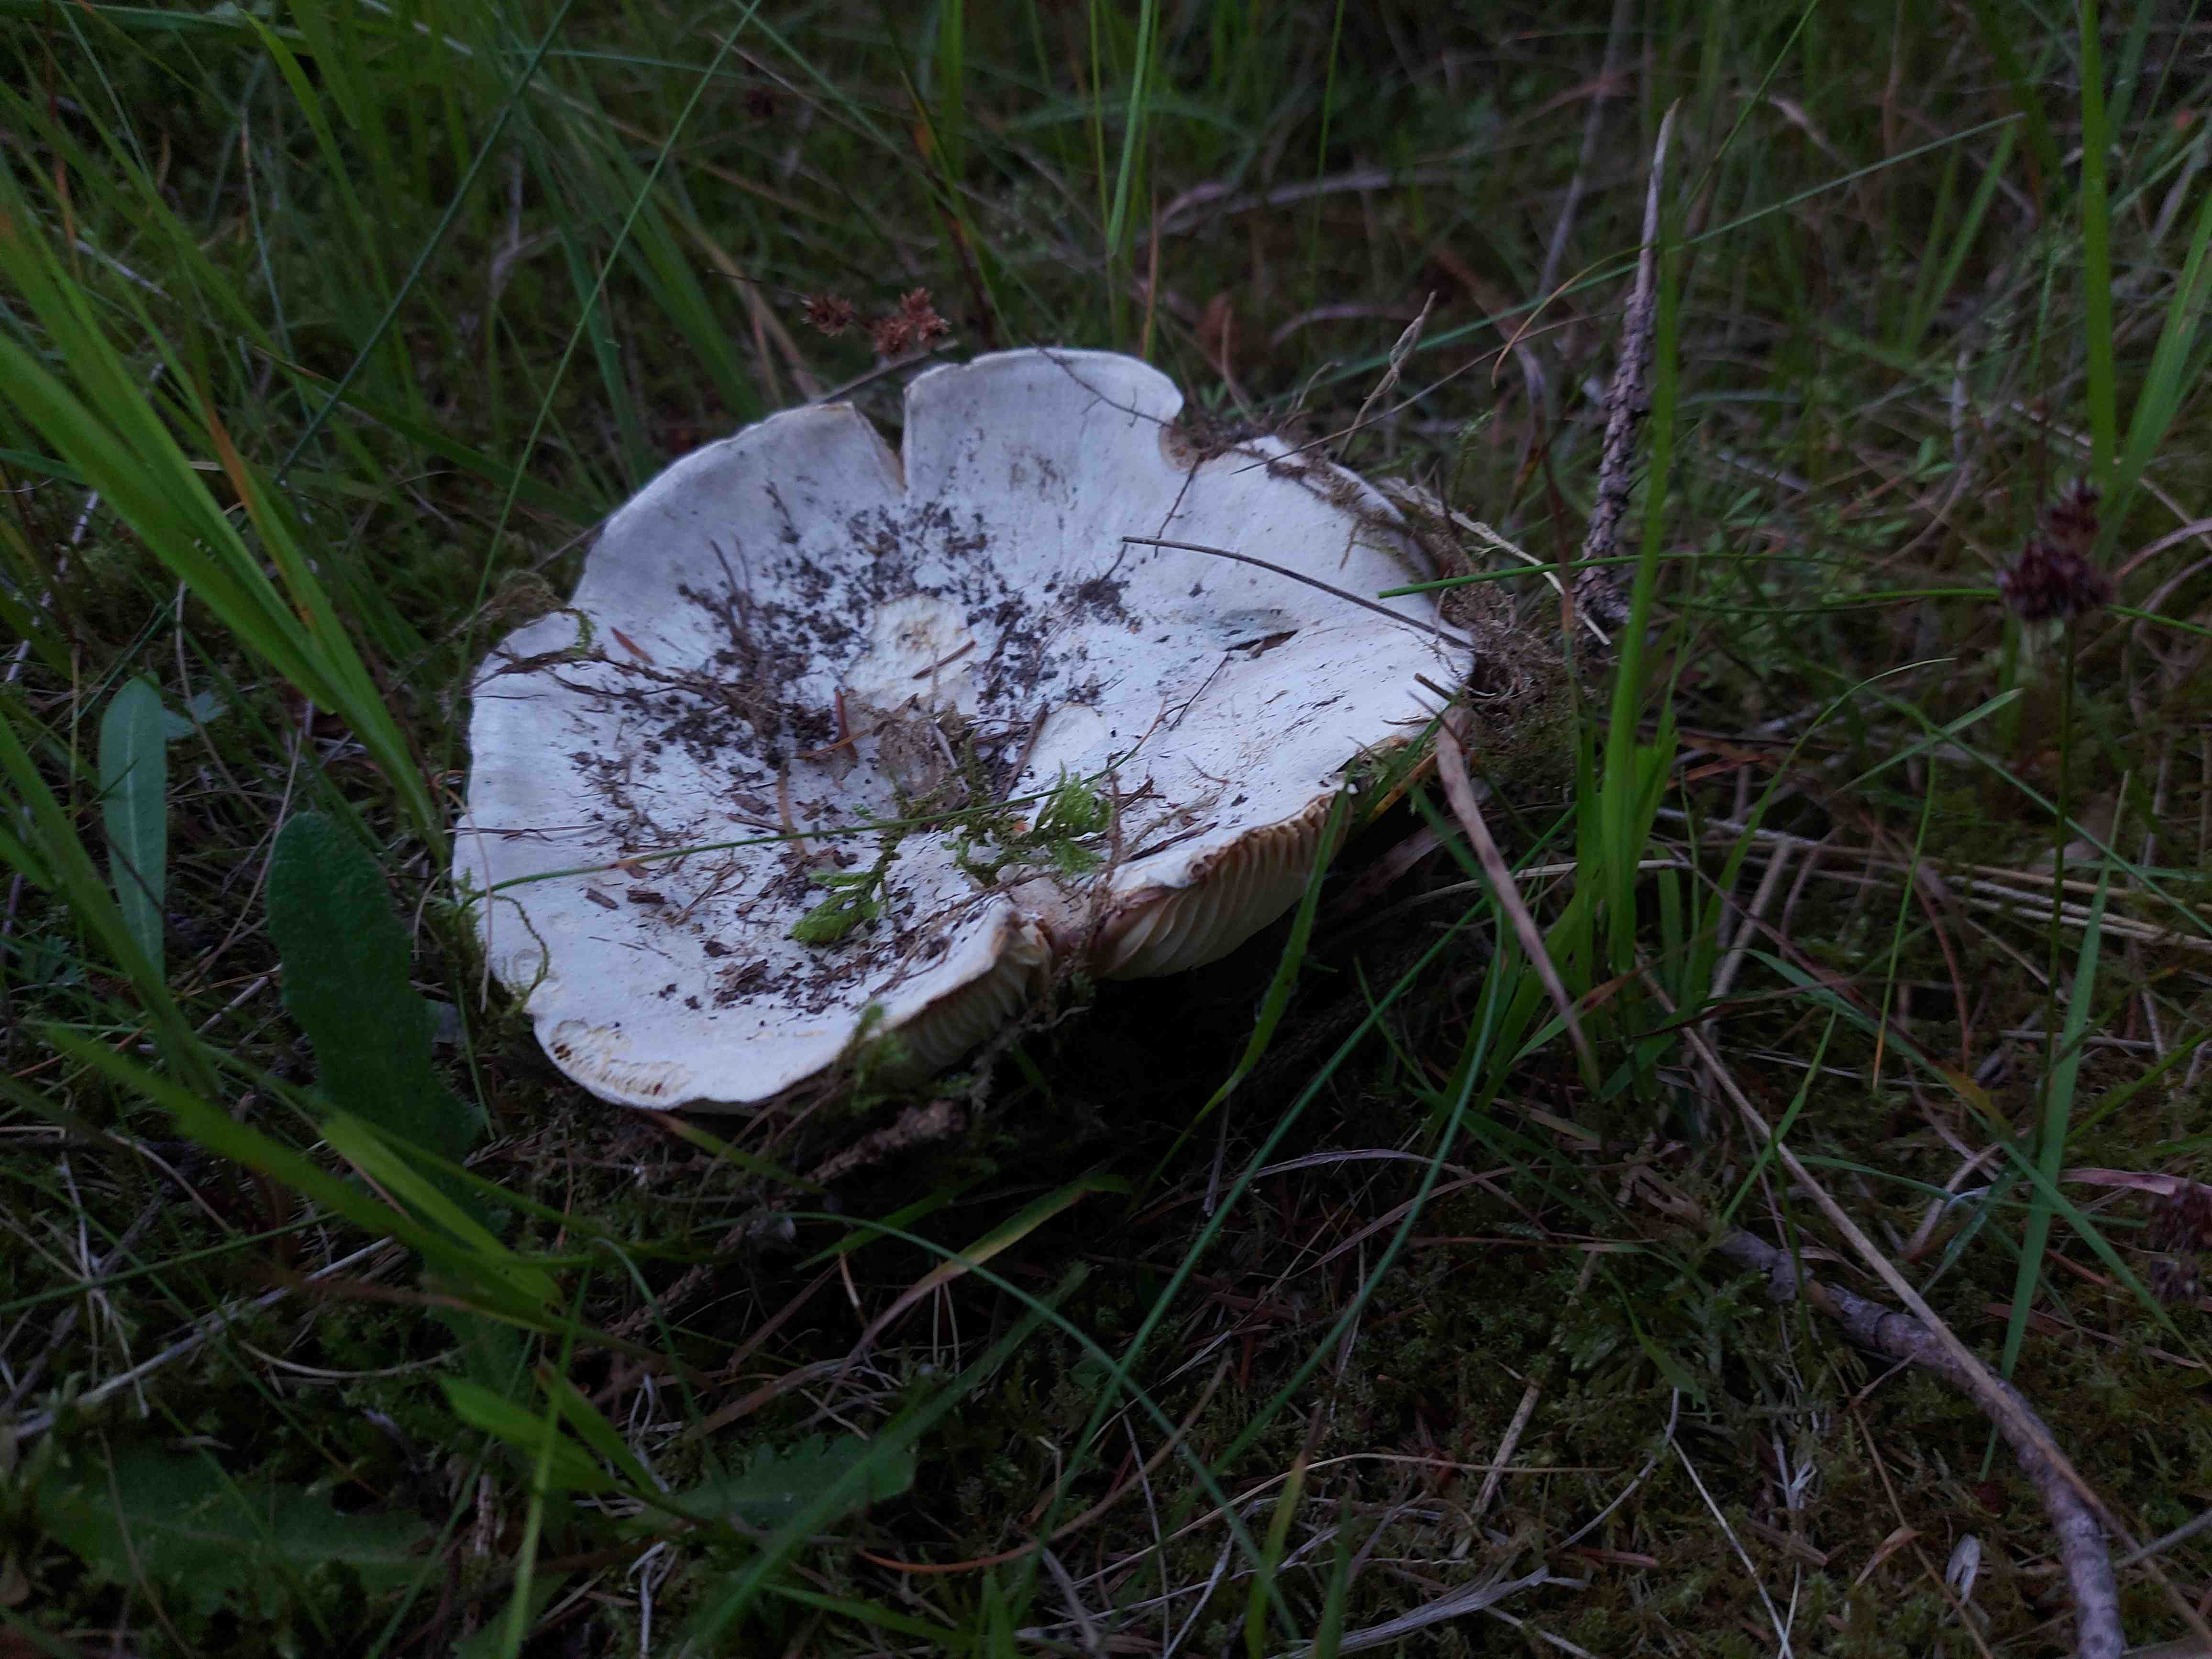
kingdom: Fungi
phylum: Basidiomycota
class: Agaricomycetes
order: Russulales
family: Russulaceae
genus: Lactifluus
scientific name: Lactifluus
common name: mælkehat
